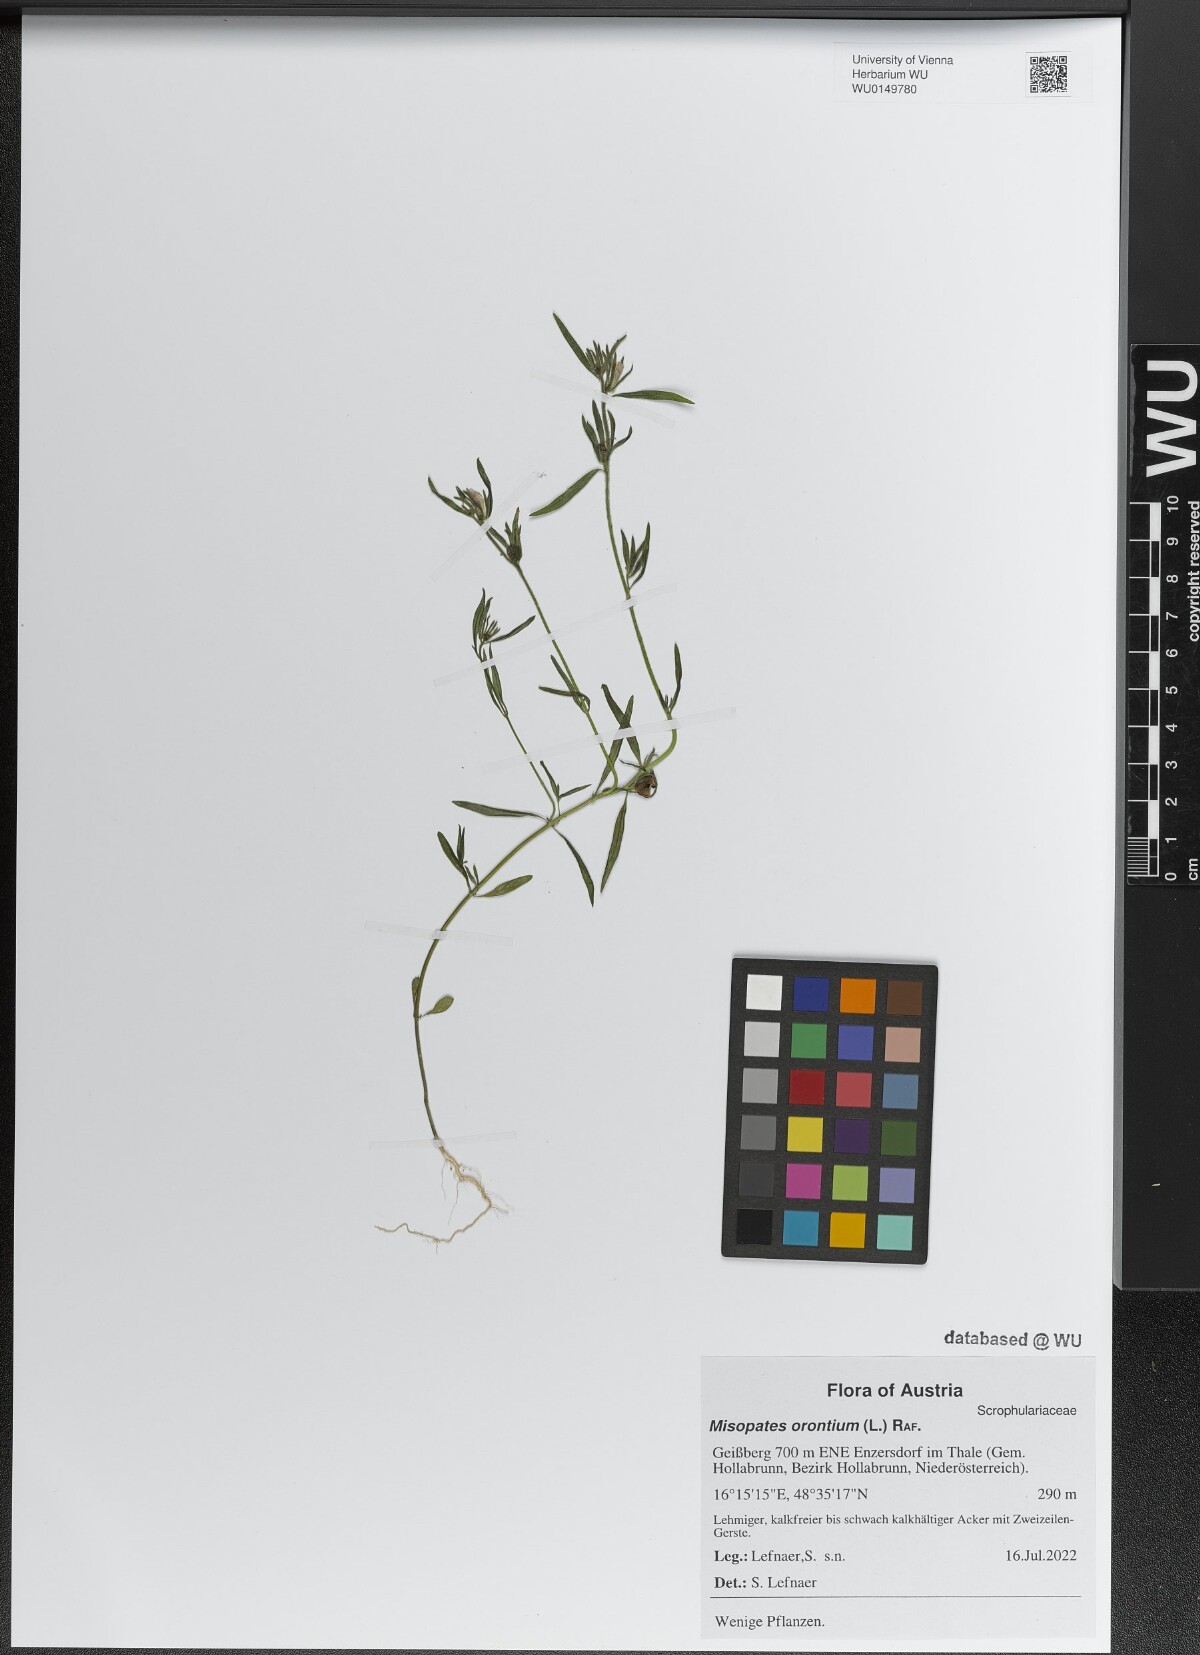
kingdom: Plantae
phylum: Tracheophyta
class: Magnoliopsida
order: Lamiales
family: Plantaginaceae
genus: Misopates
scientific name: Misopates orontium
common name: Weasel's-snout
